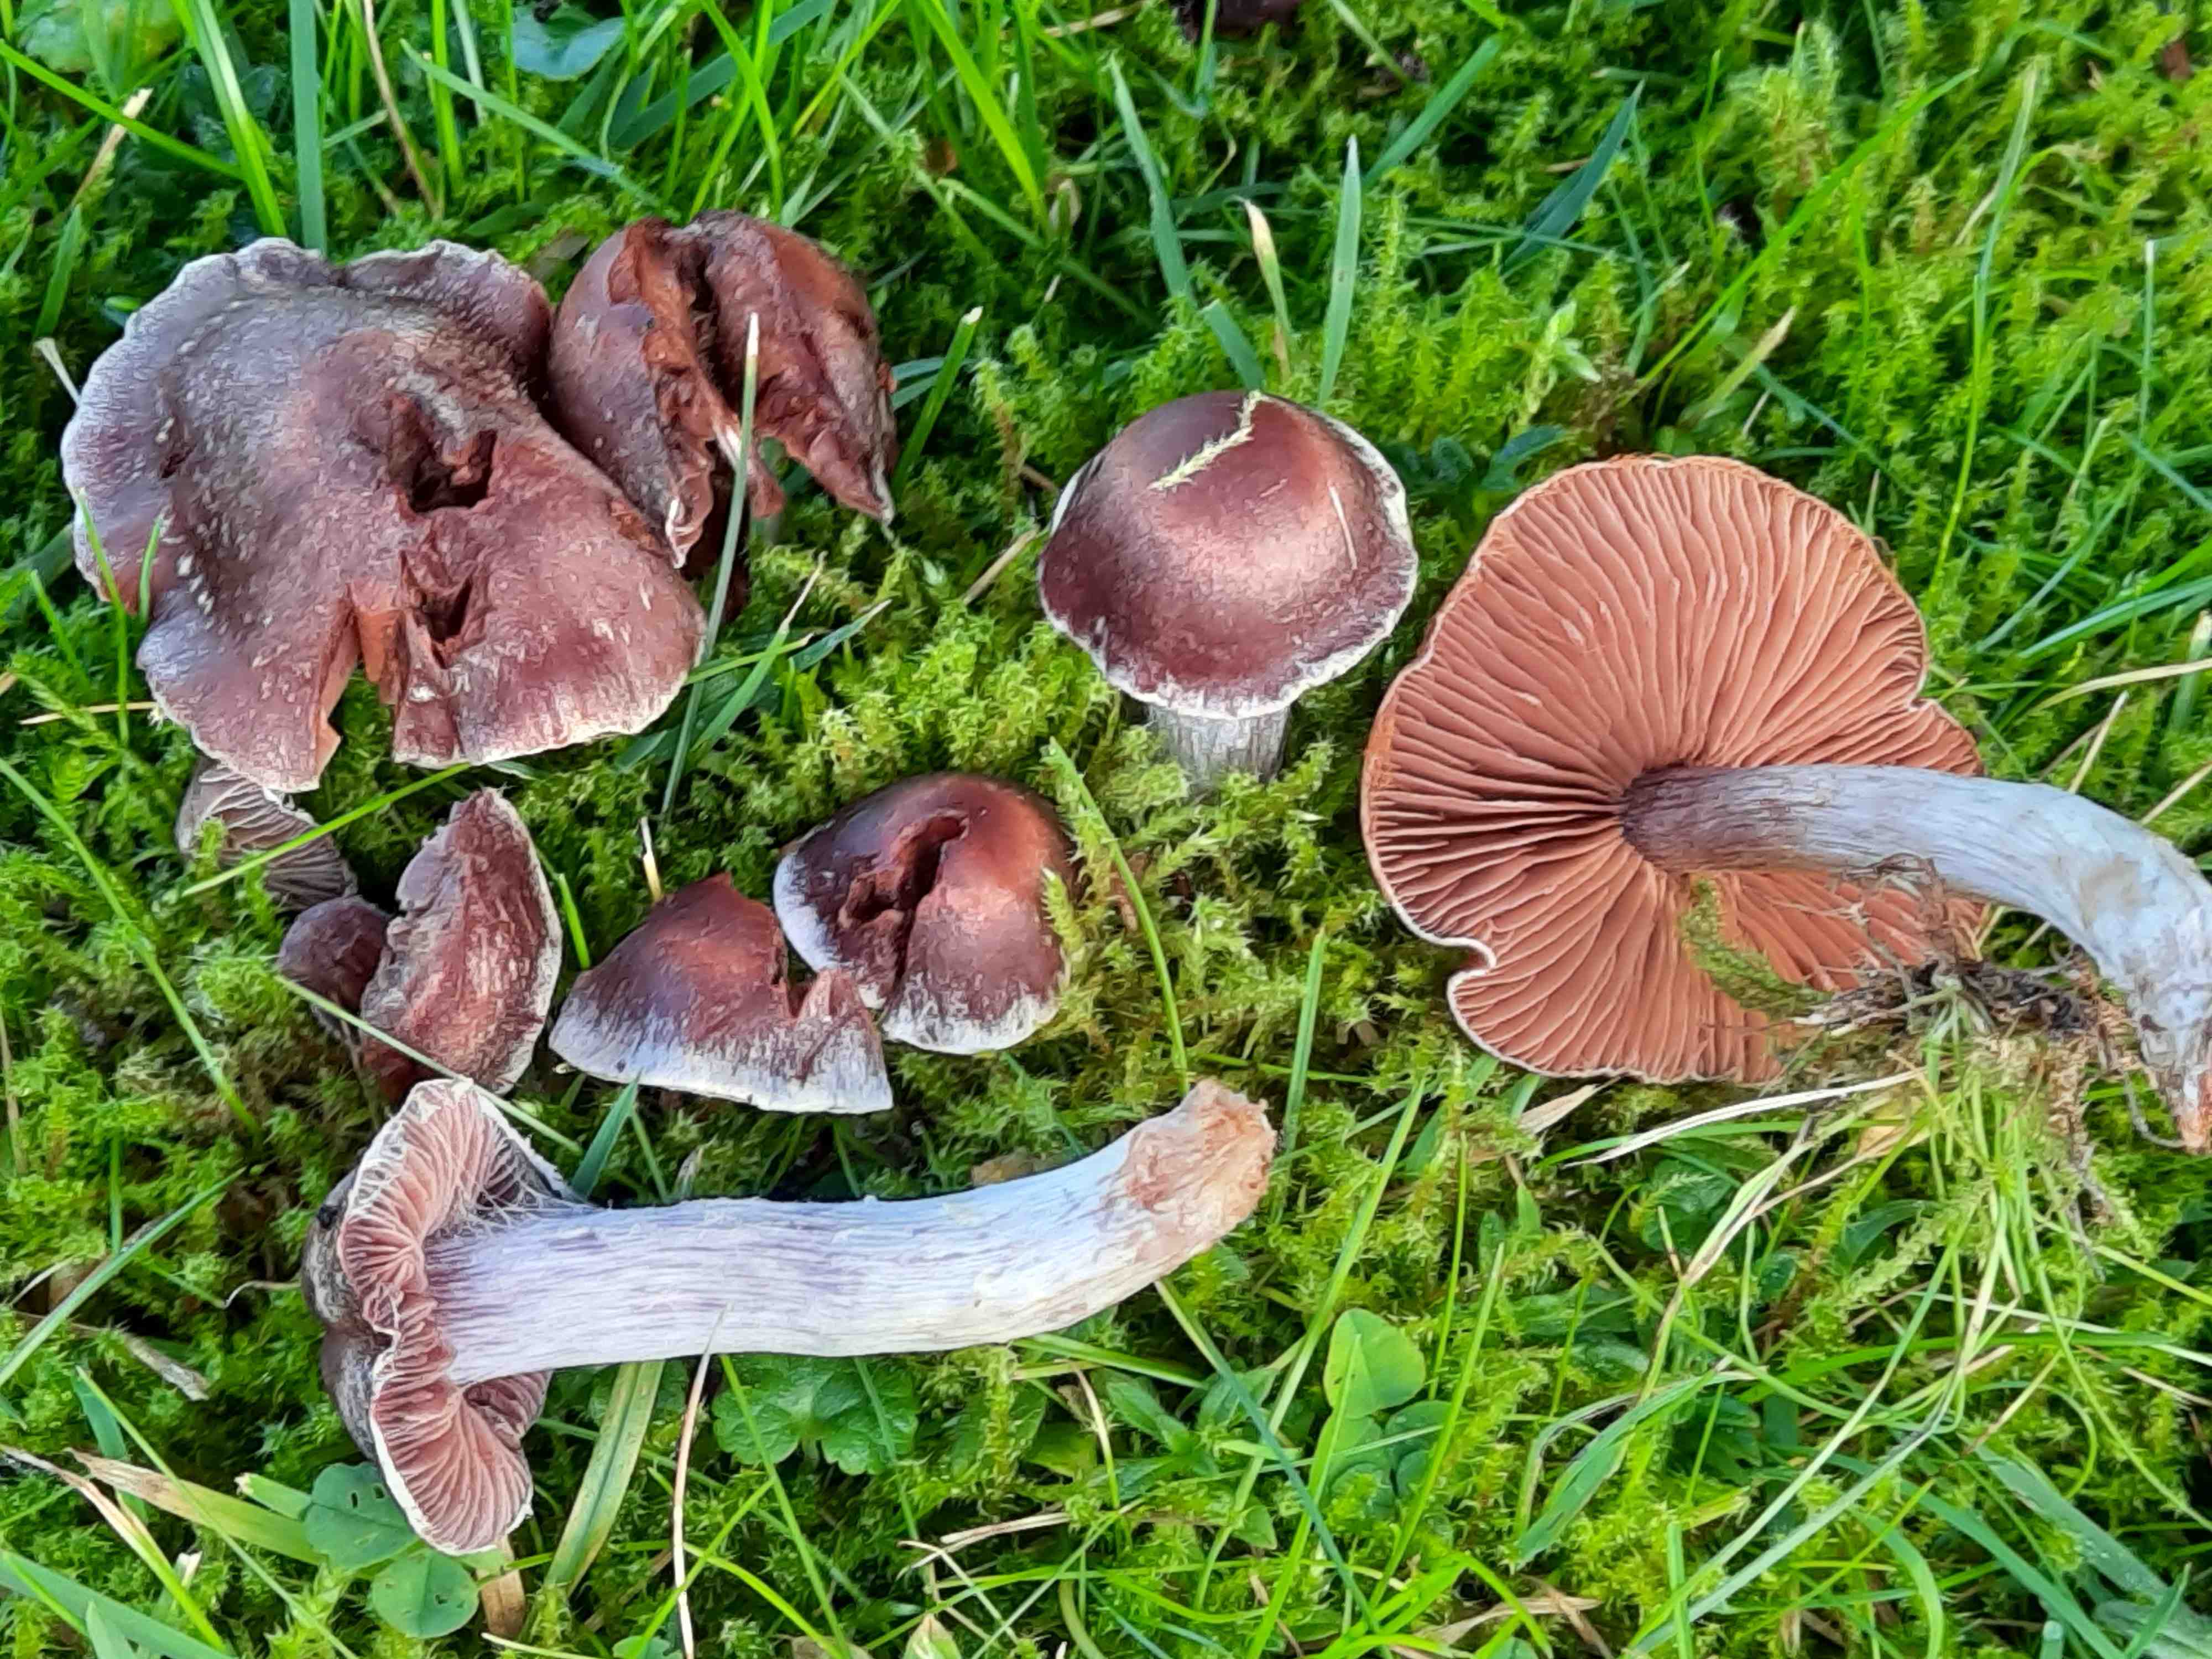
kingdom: Fungi
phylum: Basidiomycota
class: Agaricomycetes
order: Agaricales
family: Cortinariaceae
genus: Cortinarius
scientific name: Cortinarius saturninus
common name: brunviolet slørhat
